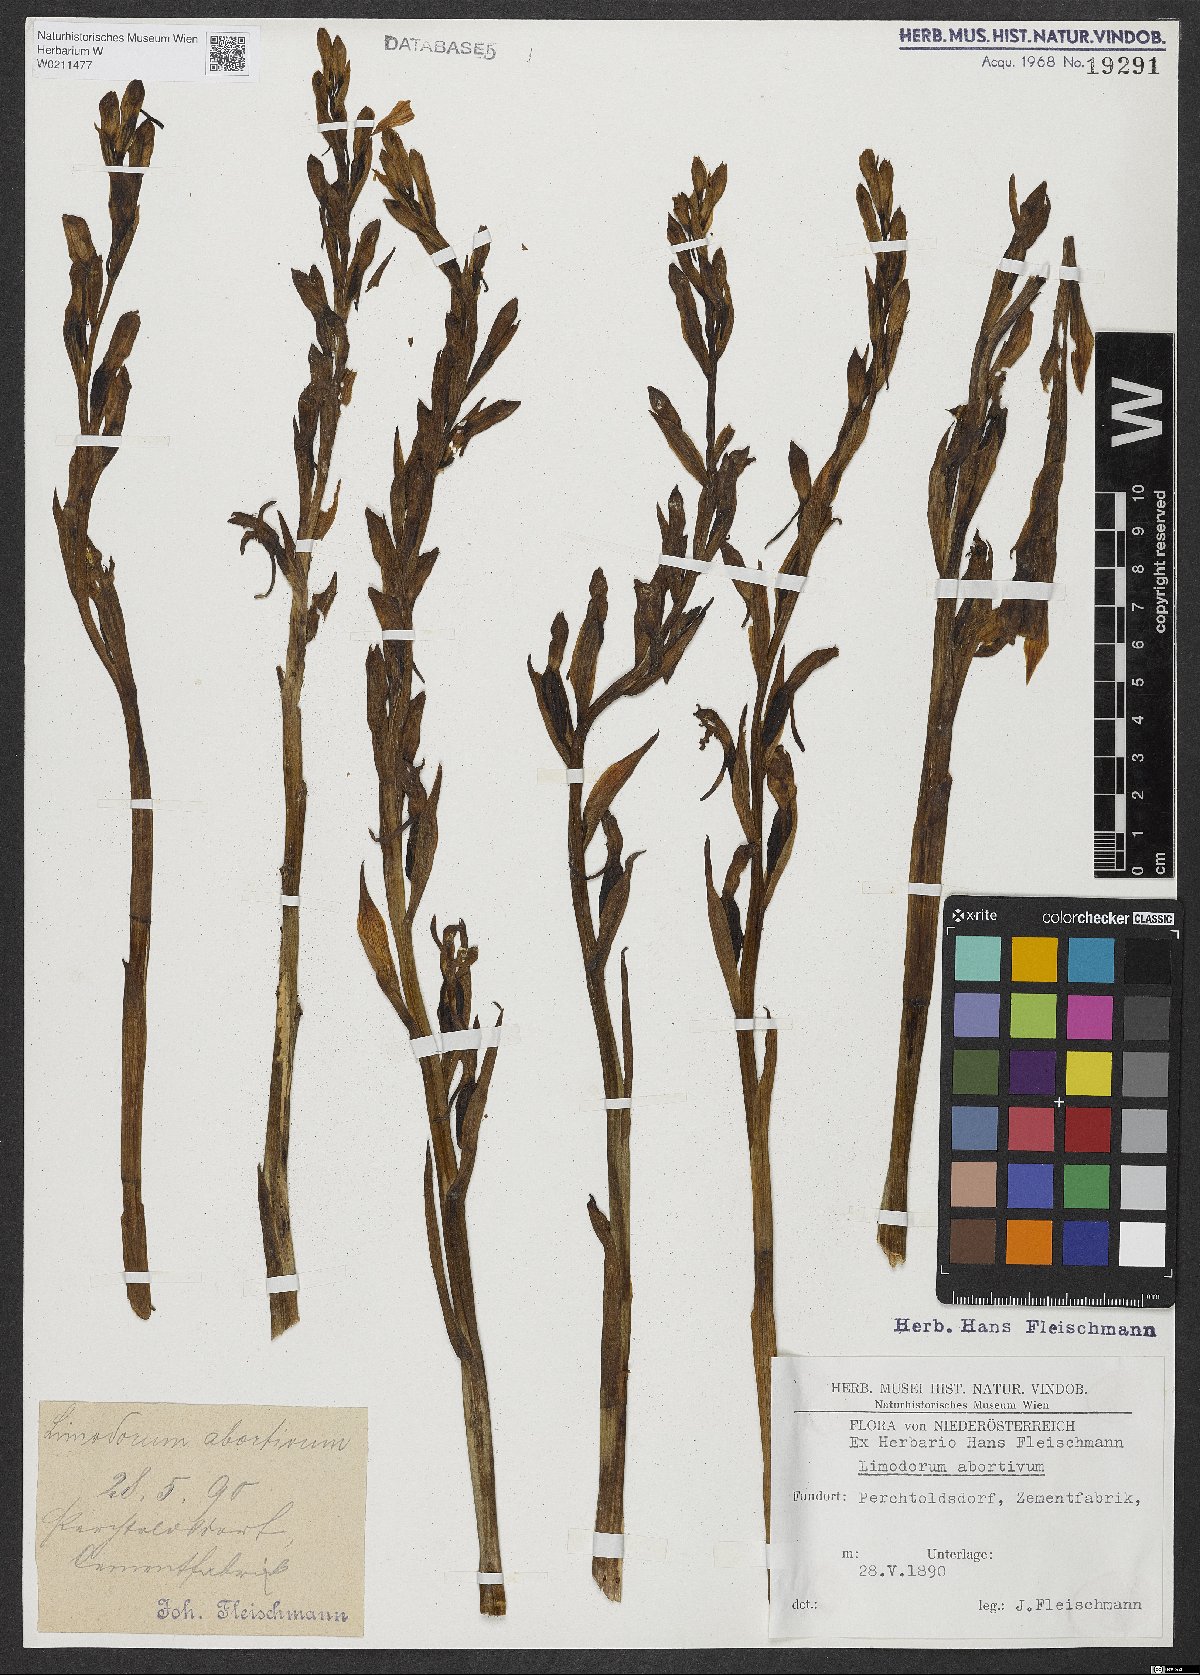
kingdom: Plantae
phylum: Tracheophyta
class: Liliopsida
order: Asparagales
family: Orchidaceae
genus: Limodorum
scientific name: Limodorum abortivum
